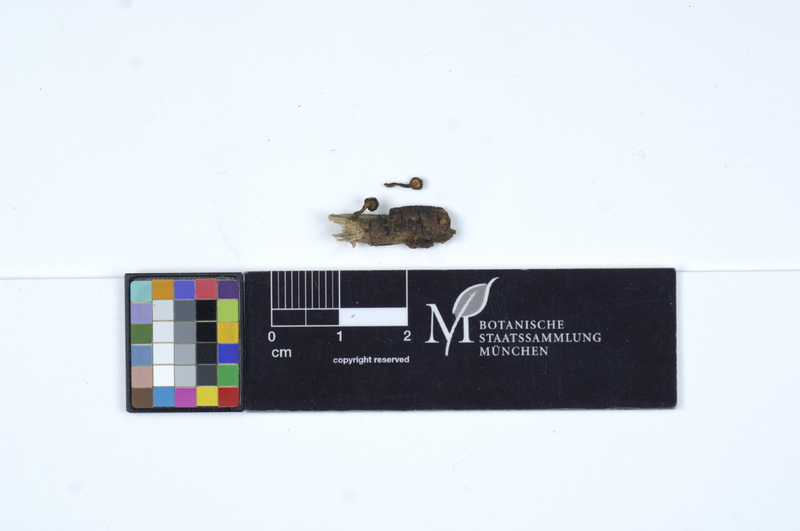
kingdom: Fungi
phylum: Ascomycota
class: Leotiomycetes
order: Helotiales
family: Vibrisseaceae
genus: Vibrissea
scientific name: Vibrissea truncorum
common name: Stream beacon
